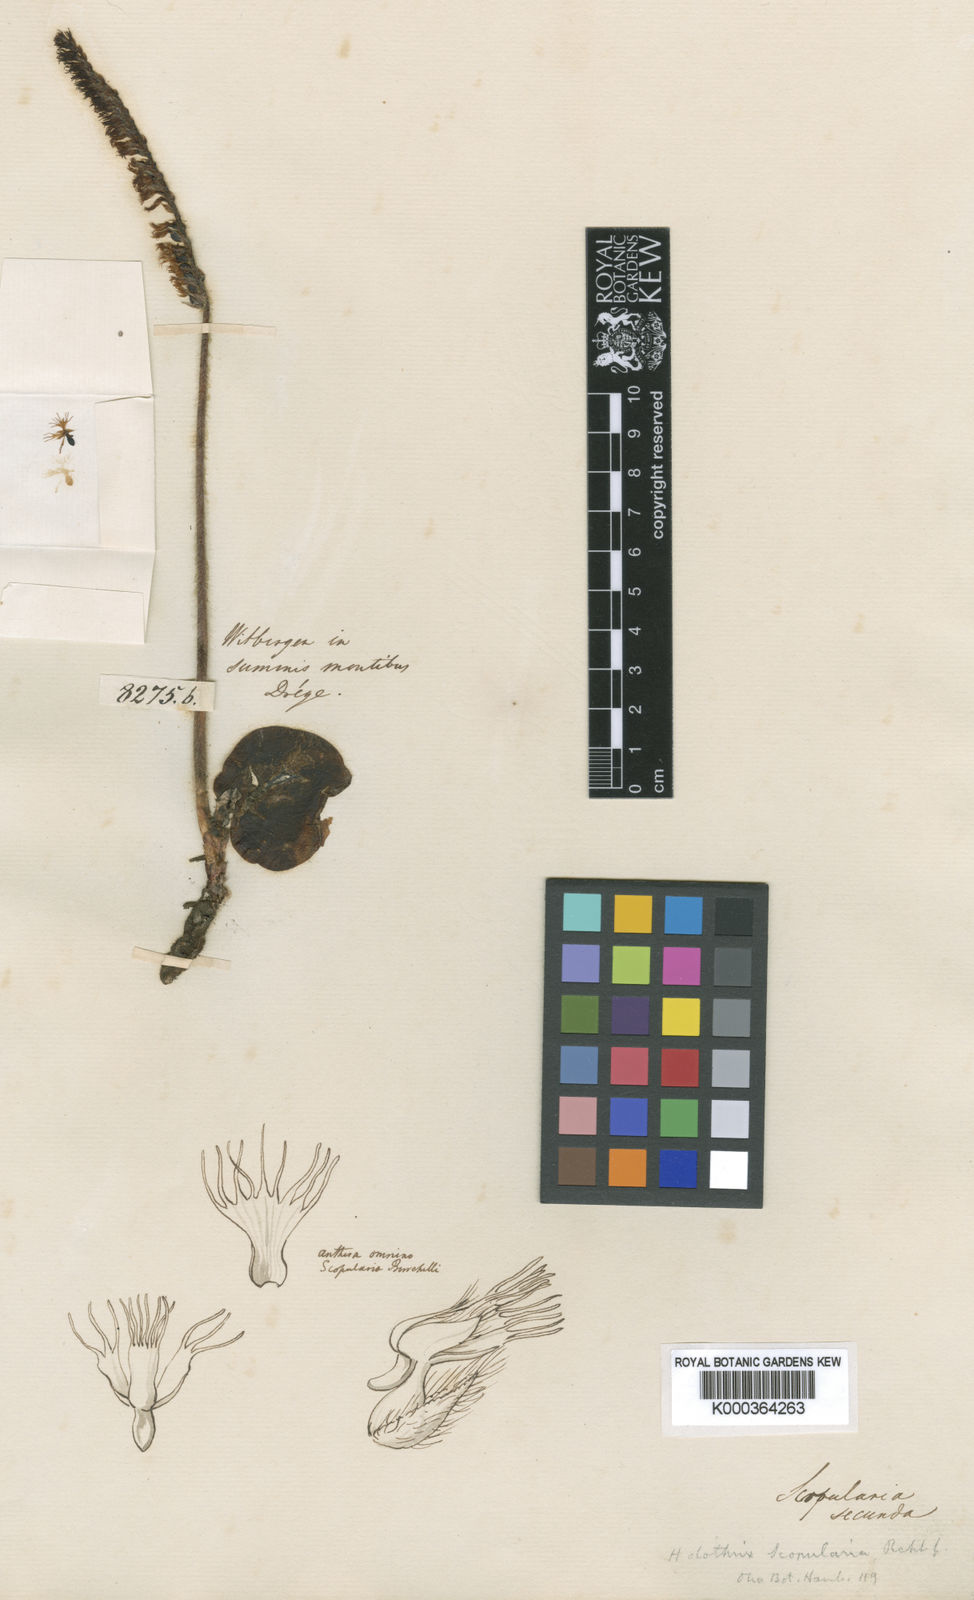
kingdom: Plantae
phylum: Tracheophyta
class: Liliopsida
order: Asparagales
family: Orchidaceae
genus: Holothrix
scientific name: Holothrix scopularia
